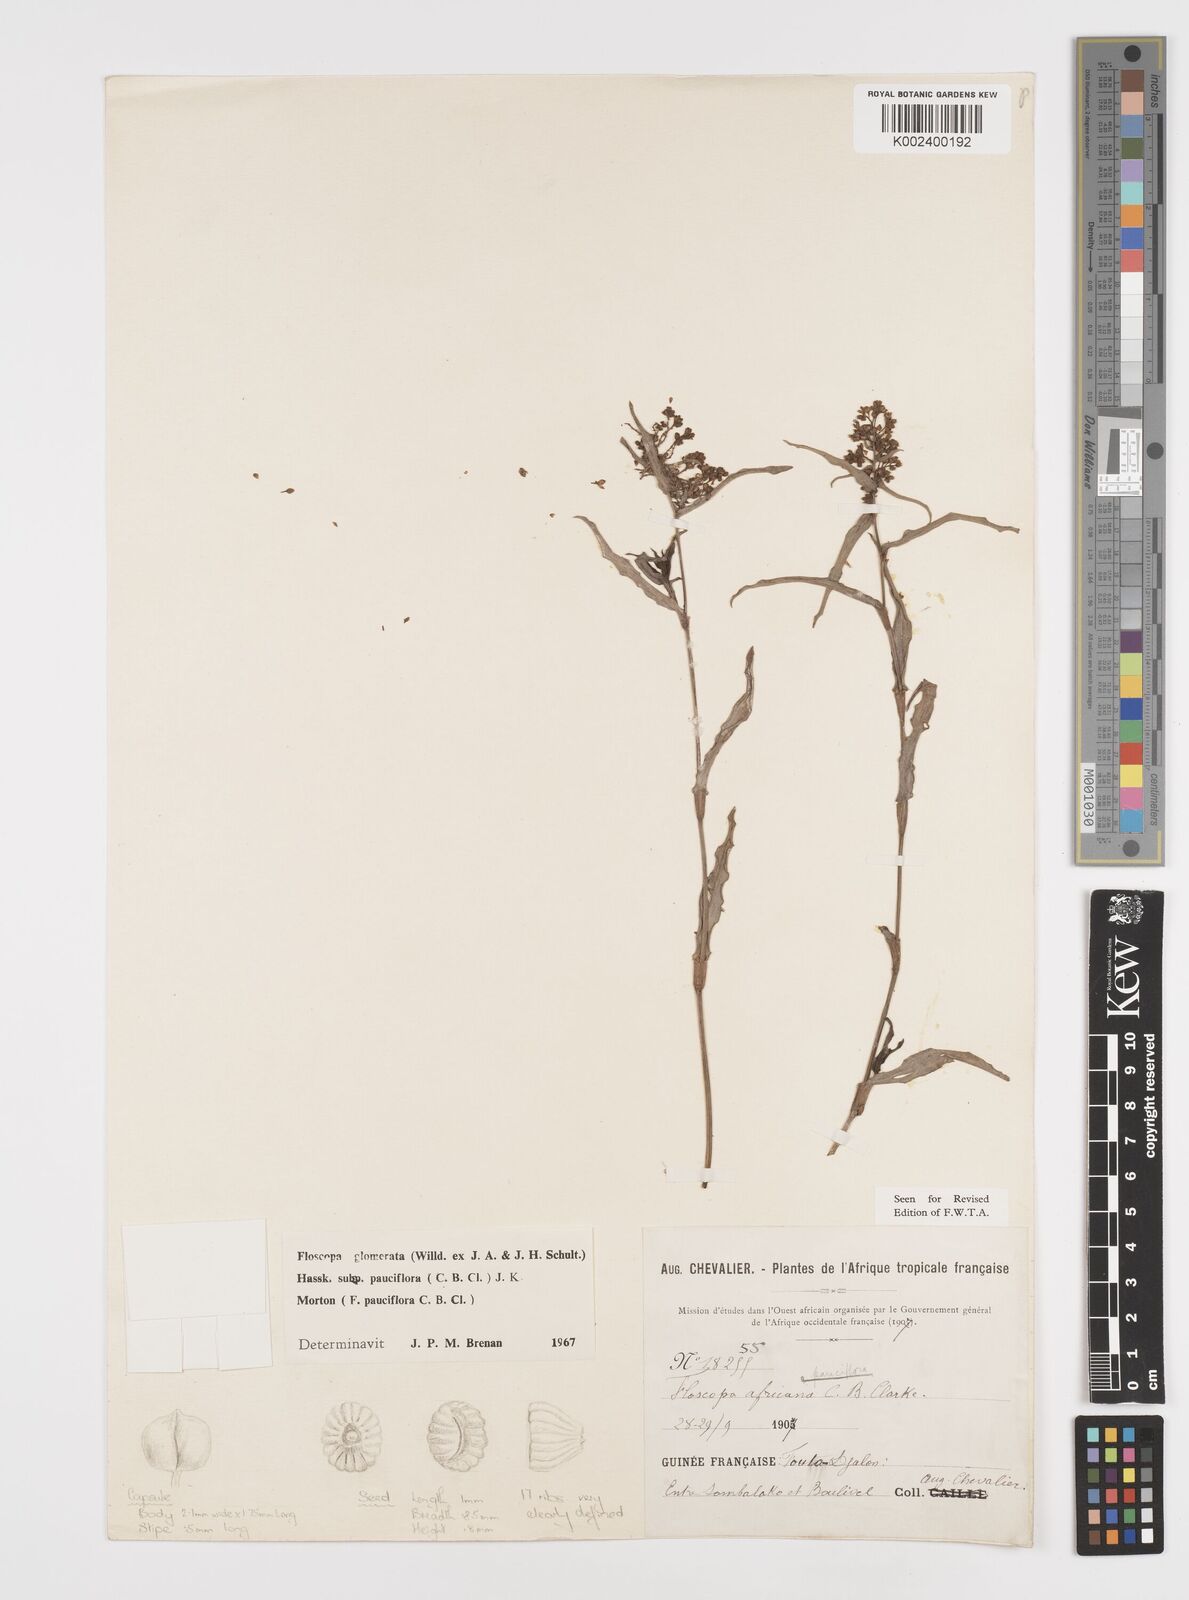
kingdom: Plantae
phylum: Tracheophyta
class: Liliopsida
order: Commelinales
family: Commelinaceae
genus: Floscopa
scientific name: Floscopa glomerata
